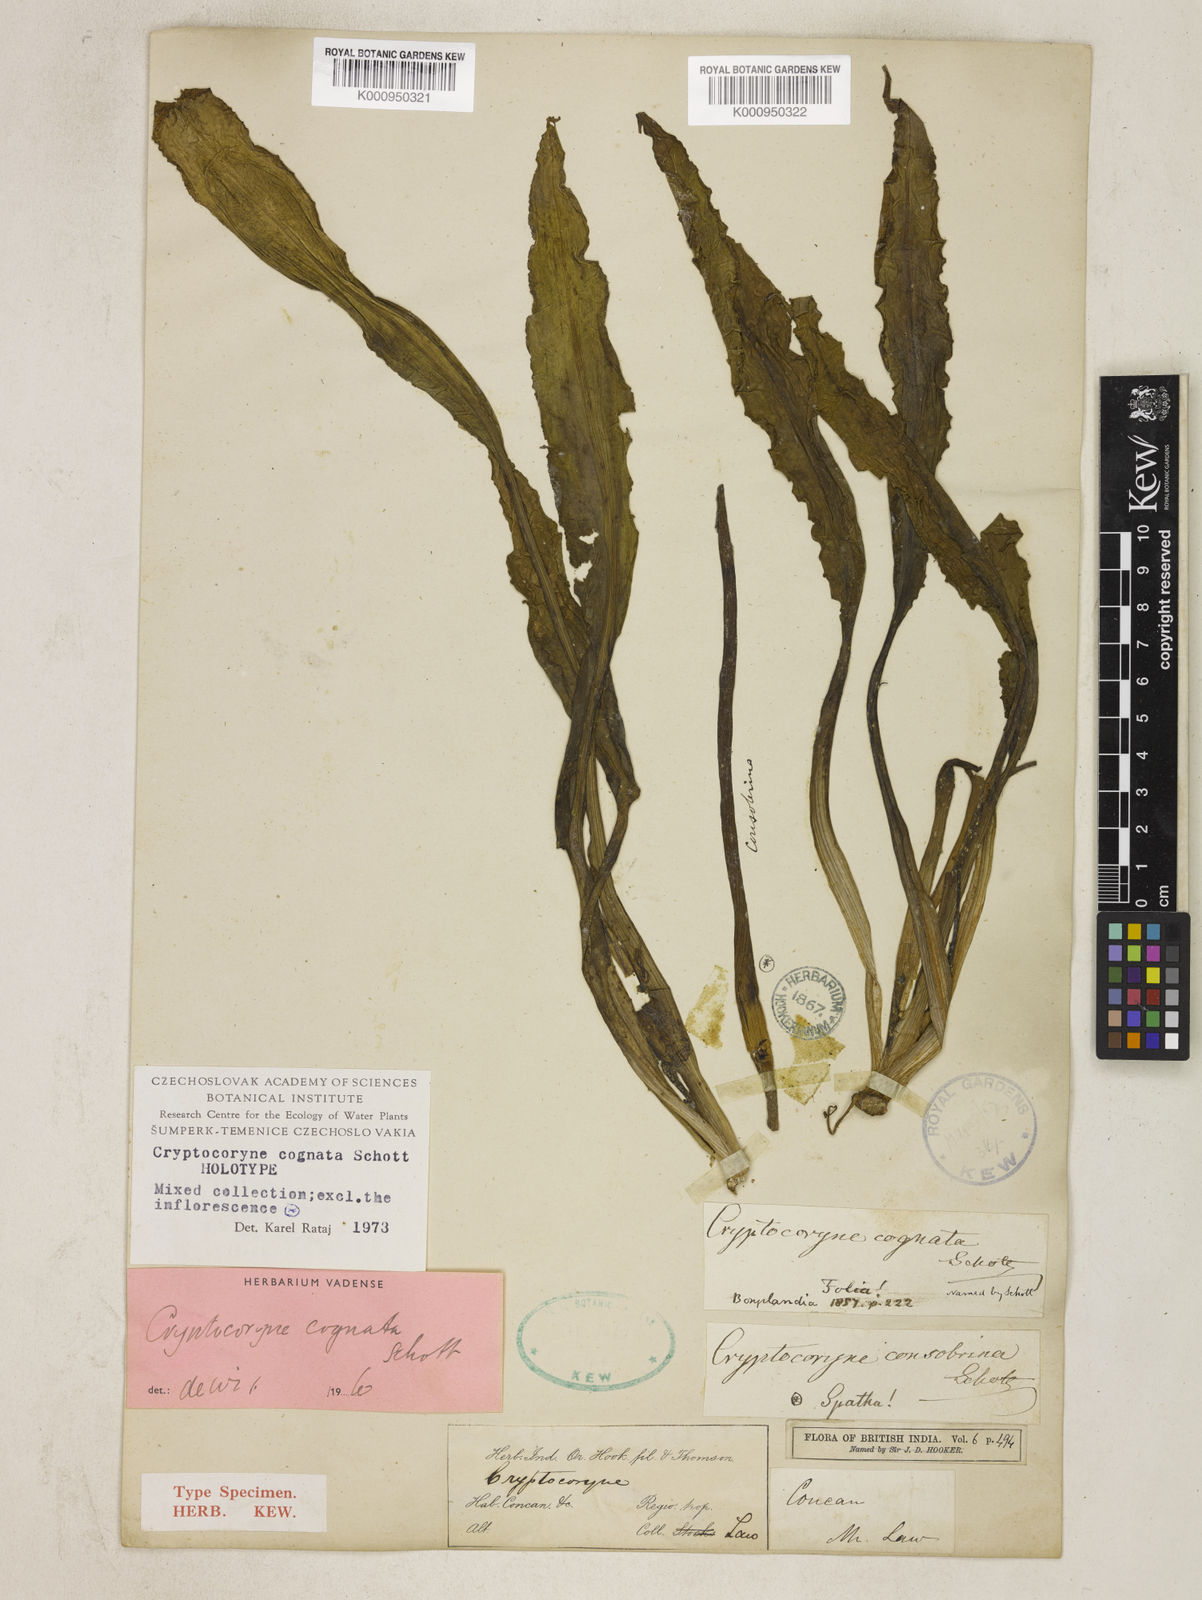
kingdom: Plantae
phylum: Tracheophyta
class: Liliopsida
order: Alismatales
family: Araceae
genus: Cryptocoryne
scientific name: Cryptocoryne cognata
